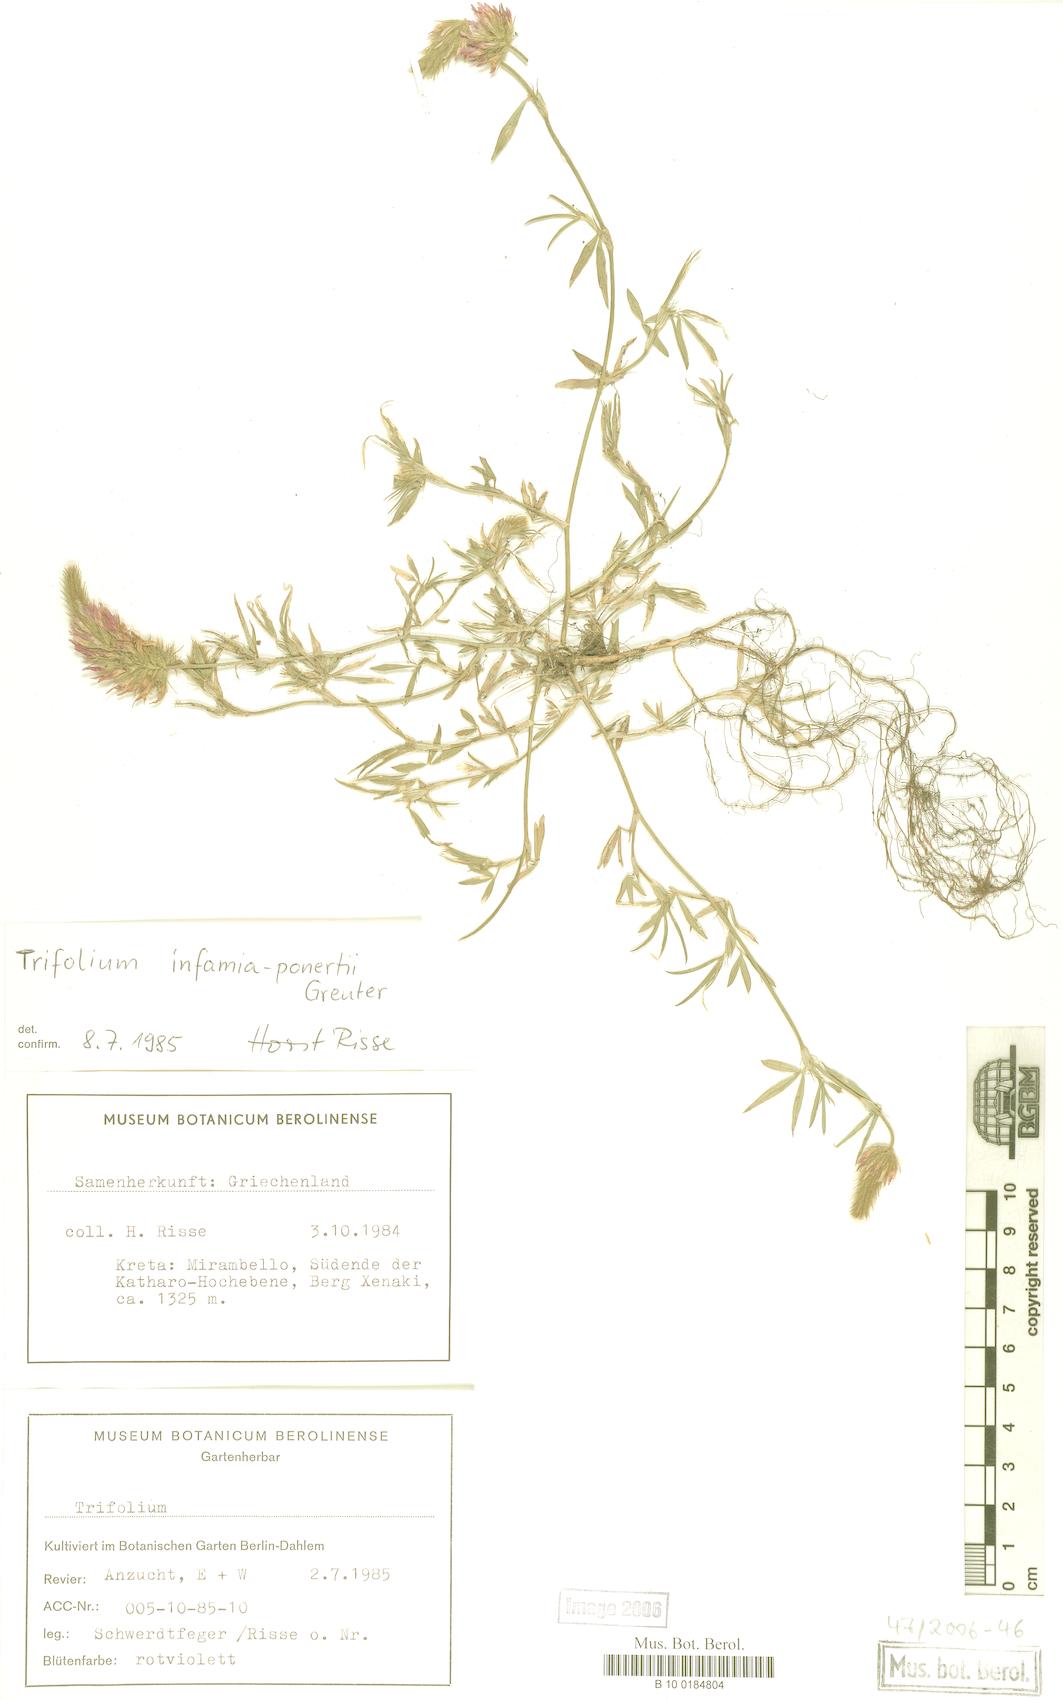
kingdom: Plantae
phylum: Tracheophyta
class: Magnoliopsida
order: Fabales
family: Fabaceae
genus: Trifolium
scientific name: Trifolium infamia-ponertii
